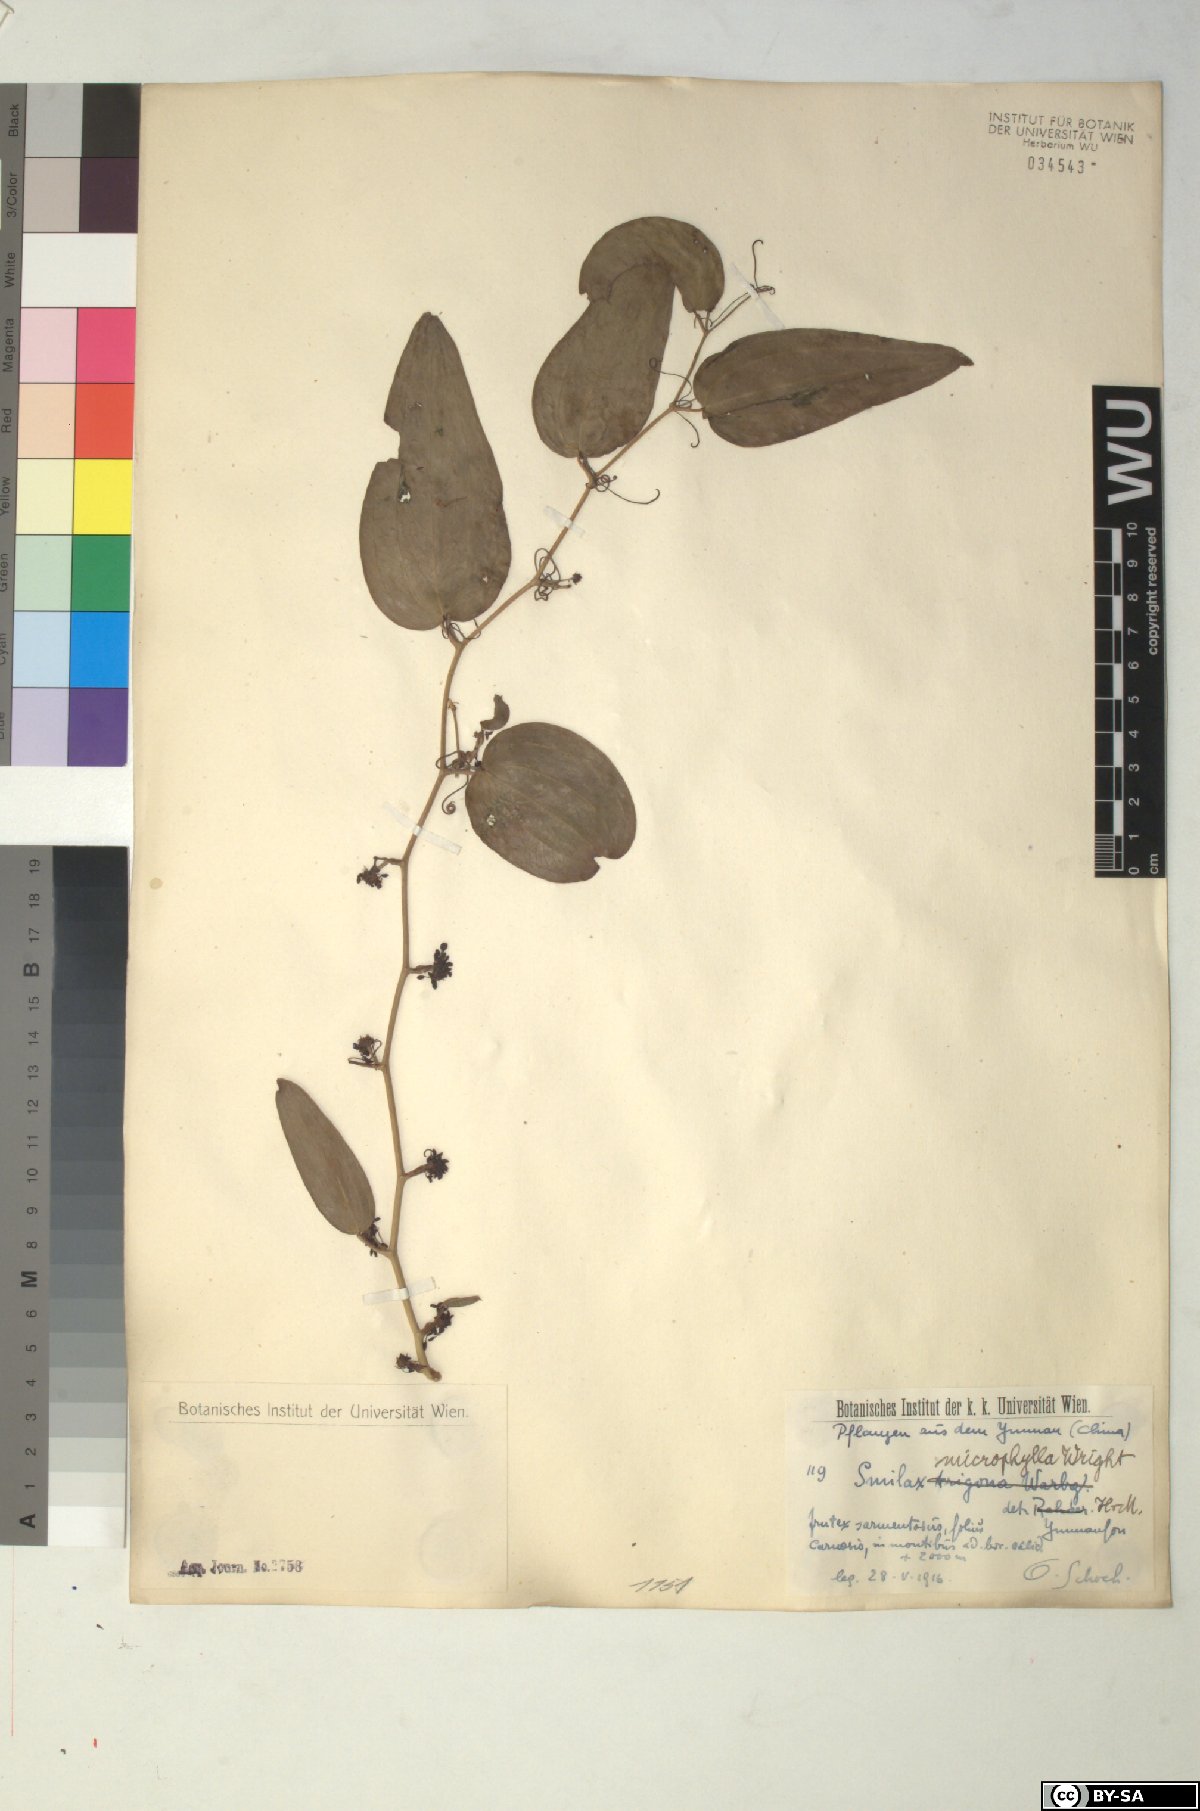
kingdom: Plantae
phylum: Tracheophyta
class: Liliopsida
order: Liliales
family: Smilacaceae
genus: Smilax
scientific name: Smilax microphylla
